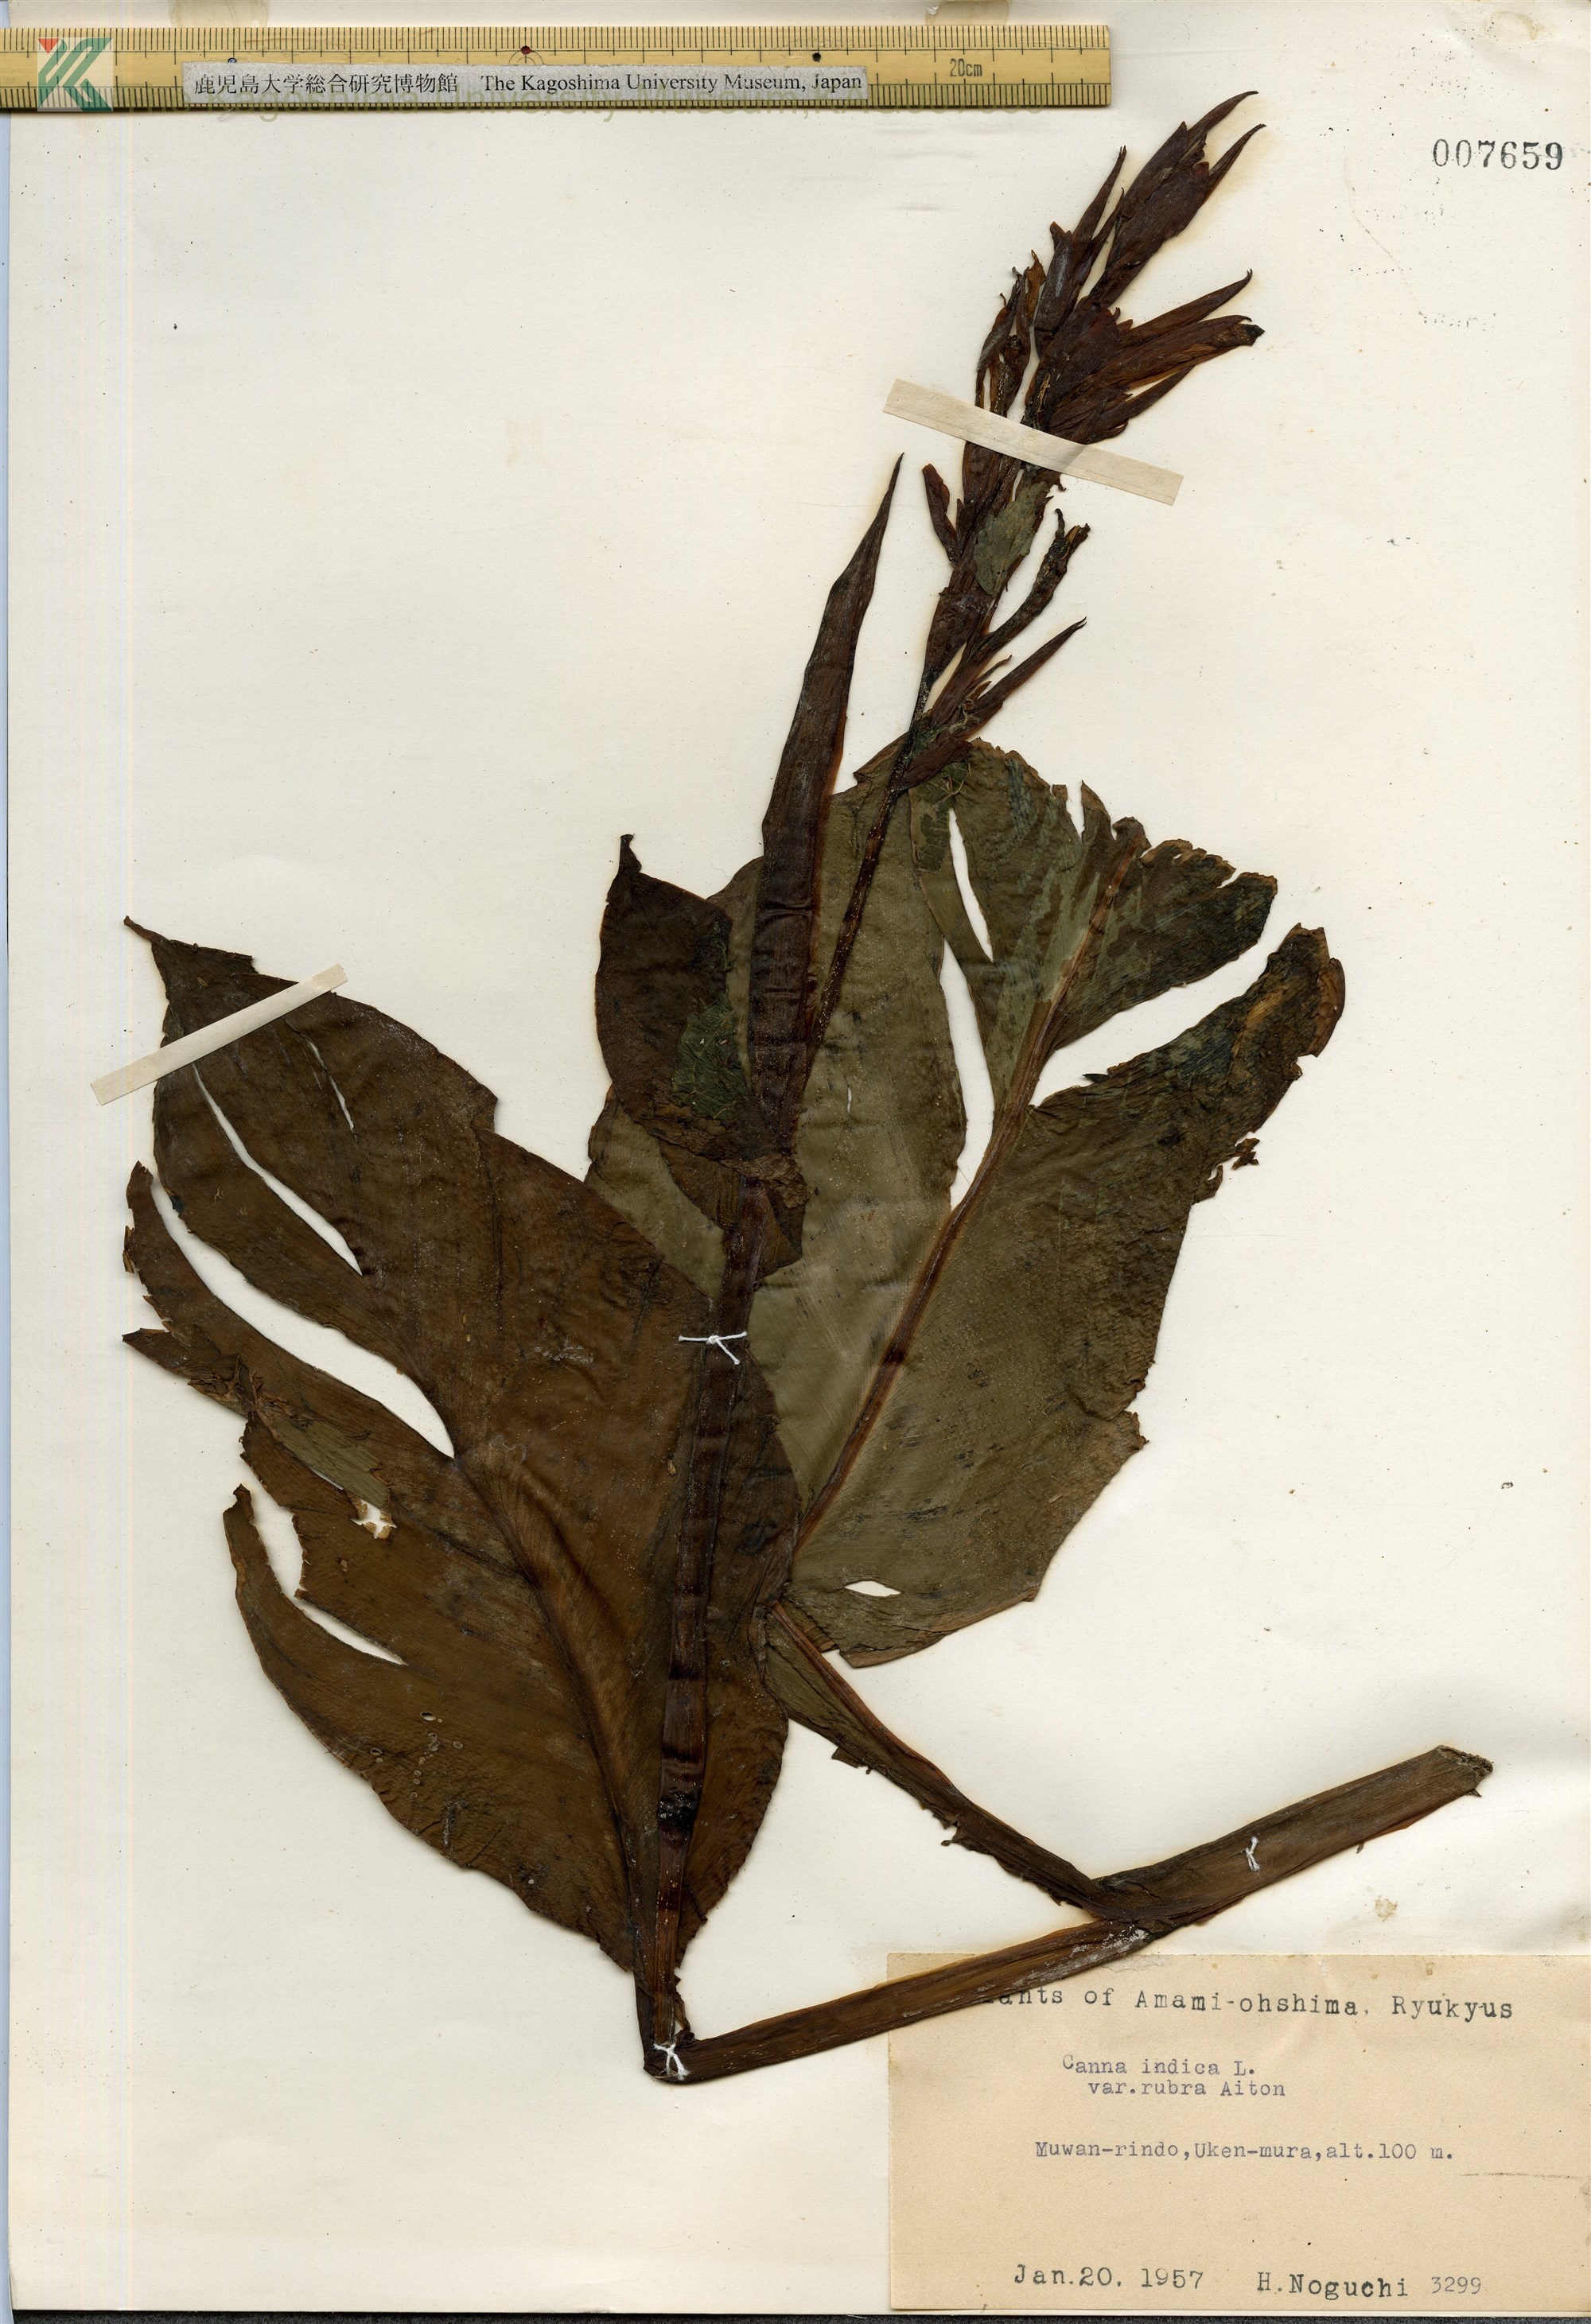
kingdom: Plantae
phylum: Tracheophyta
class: Liliopsida
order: Zingiberales
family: Cannaceae
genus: Canna
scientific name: Canna indica
